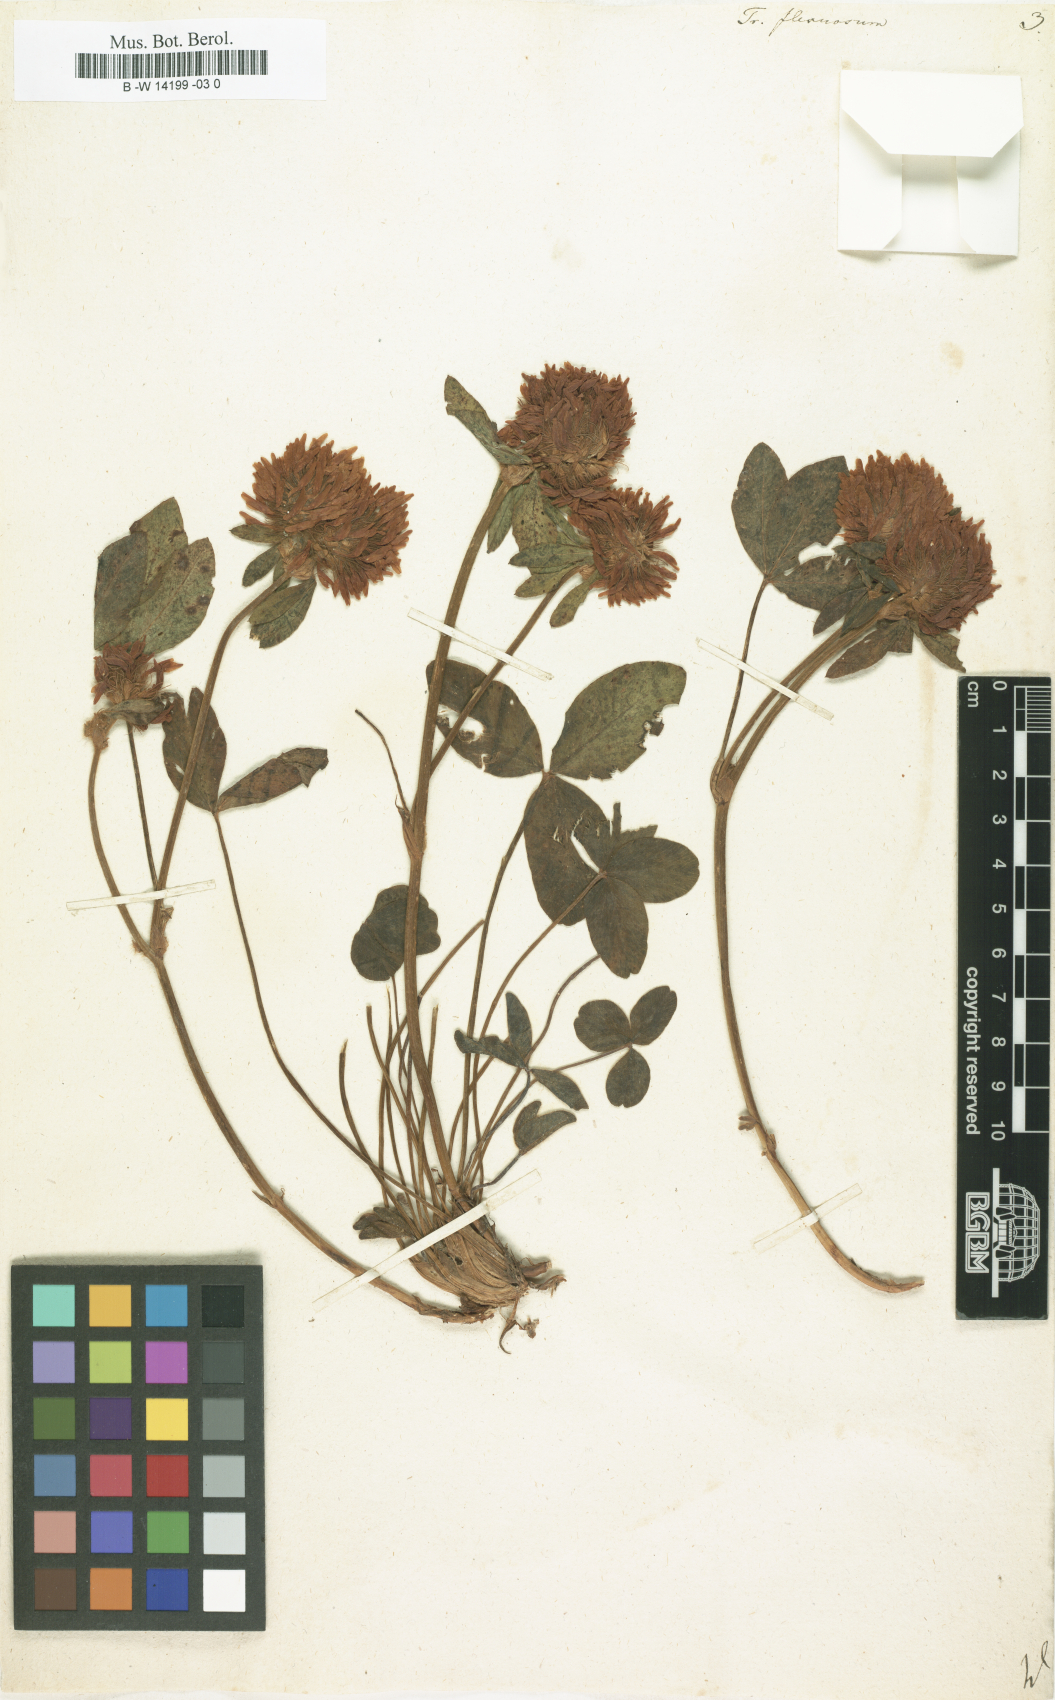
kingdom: Plantae
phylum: Tracheophyta
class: Magnoliopsida
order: Fabales
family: Fabaceae
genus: Trifolium
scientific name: Trifolium medium
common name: Zigzag clover
